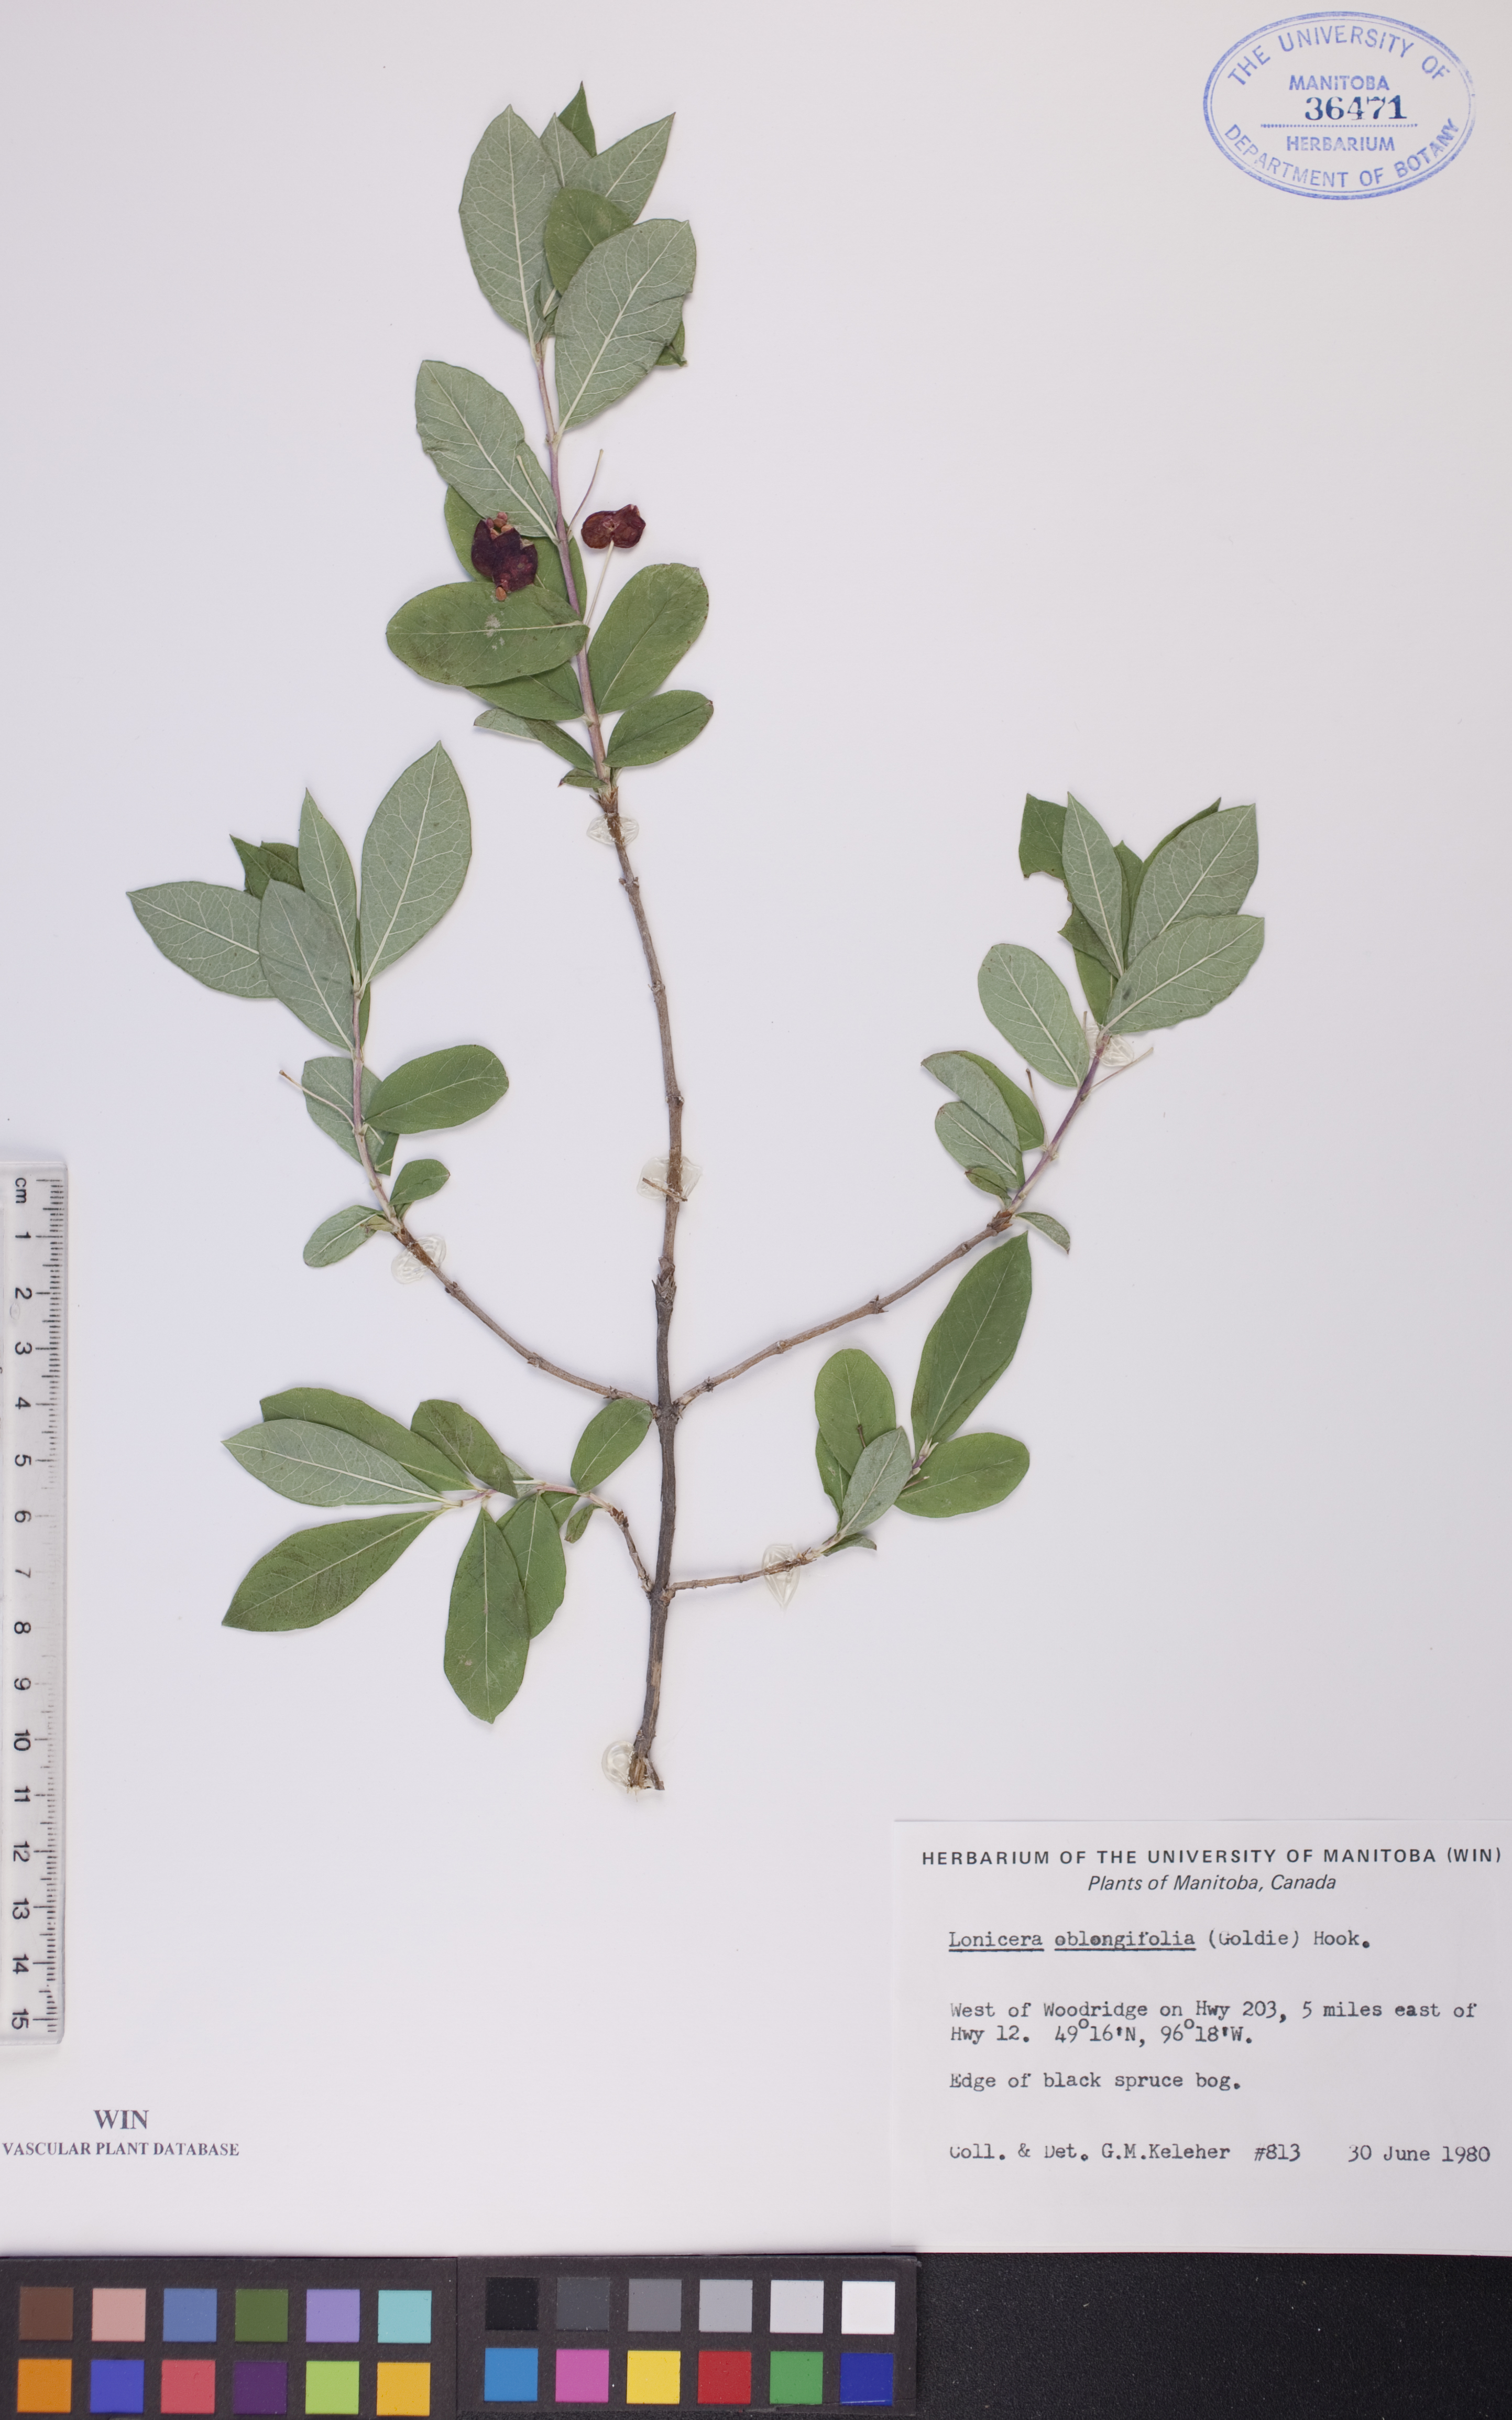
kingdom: Plantae
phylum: Tracheophyta
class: Magnoliopsida
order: Dipsacales
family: Caprifoliaceae
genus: Lonicera
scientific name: Lonicera oblongifolia
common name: Swamp fly honeysuckle
